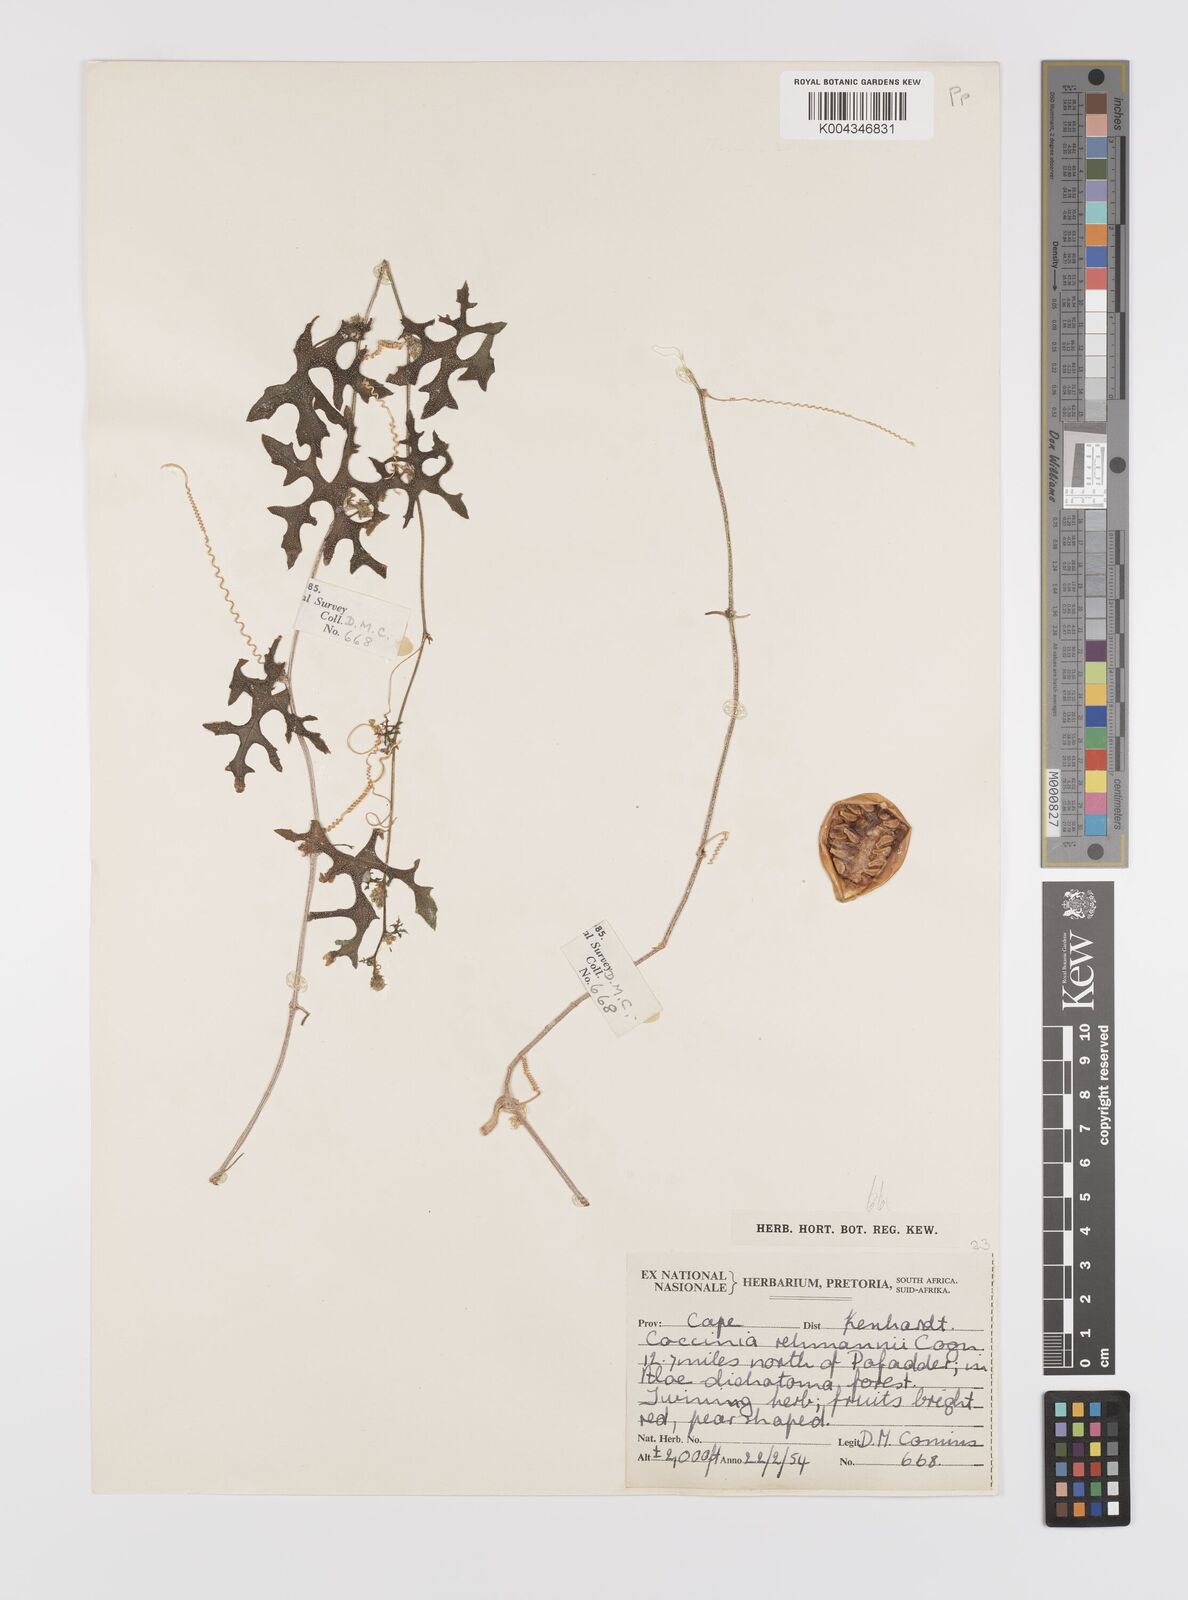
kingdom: Plantae
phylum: Tracheophyta
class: Magnoliopsida
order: Cucurbitales
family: Cucurbitaceae
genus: Coccinia
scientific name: Coccinia rehmannii
